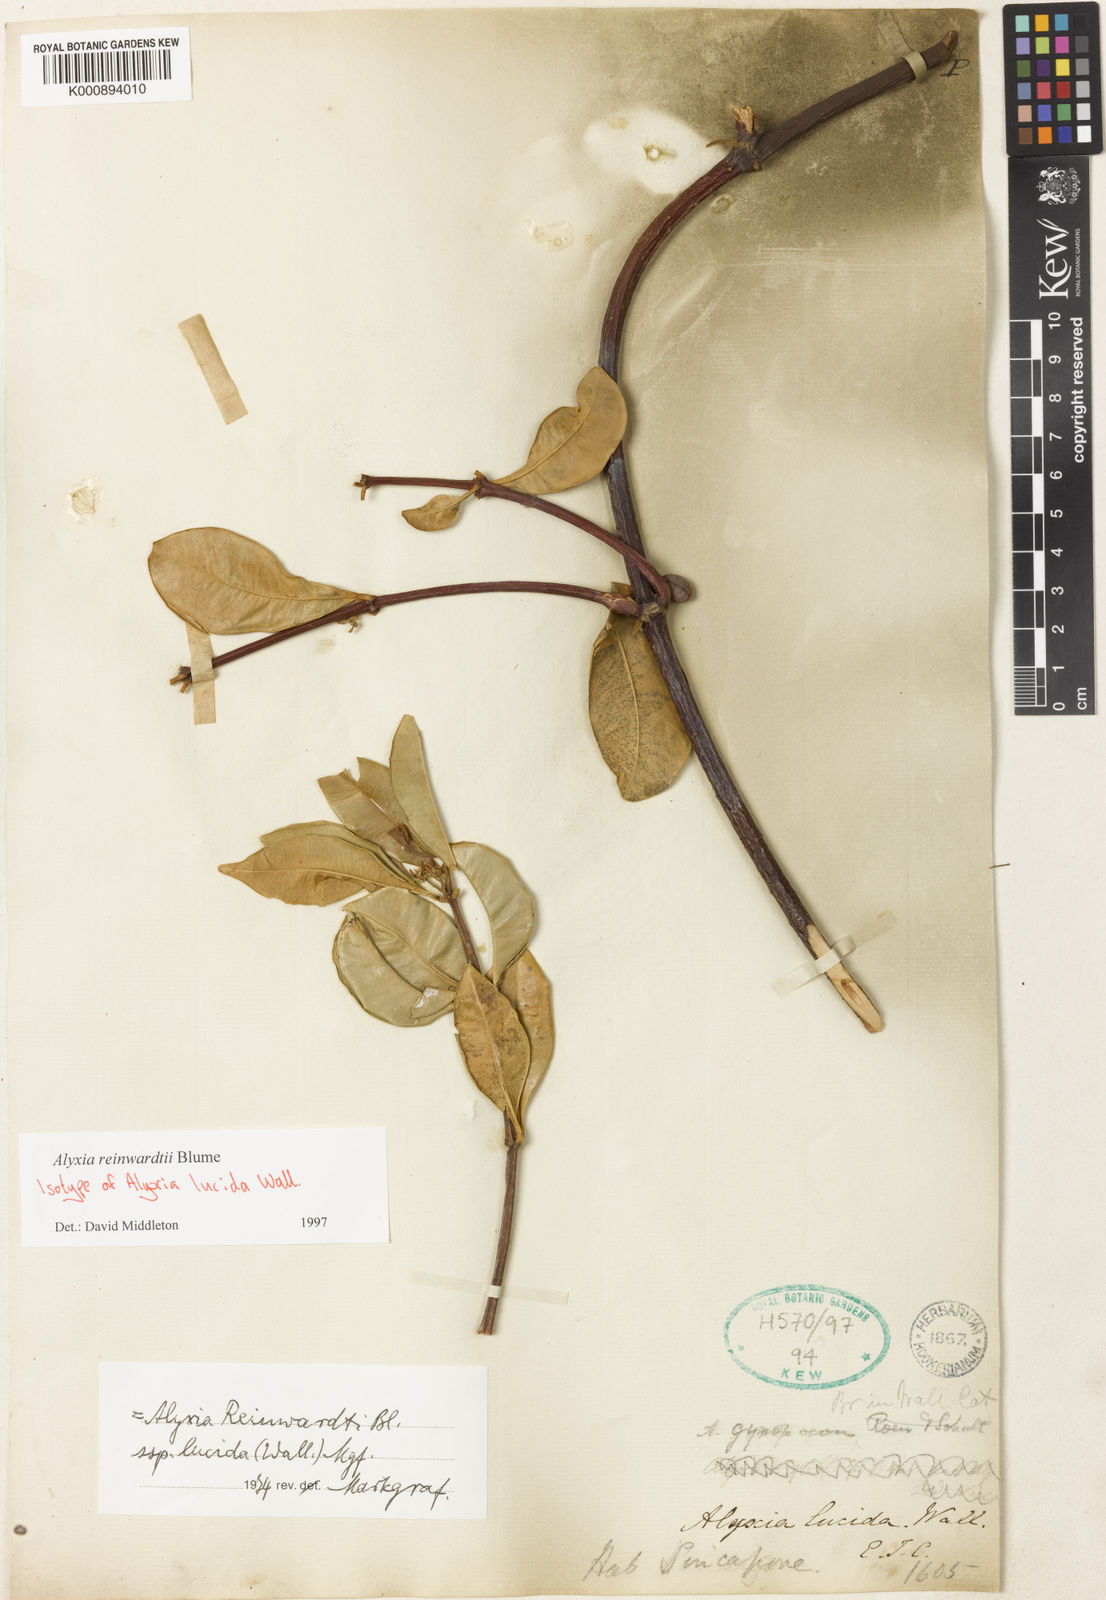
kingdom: Plantae
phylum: Tracheophyta
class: Magnoliopsida
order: Gentianales
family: Apocynaceae
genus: Alyxia
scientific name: Alyxia reinwardtii
